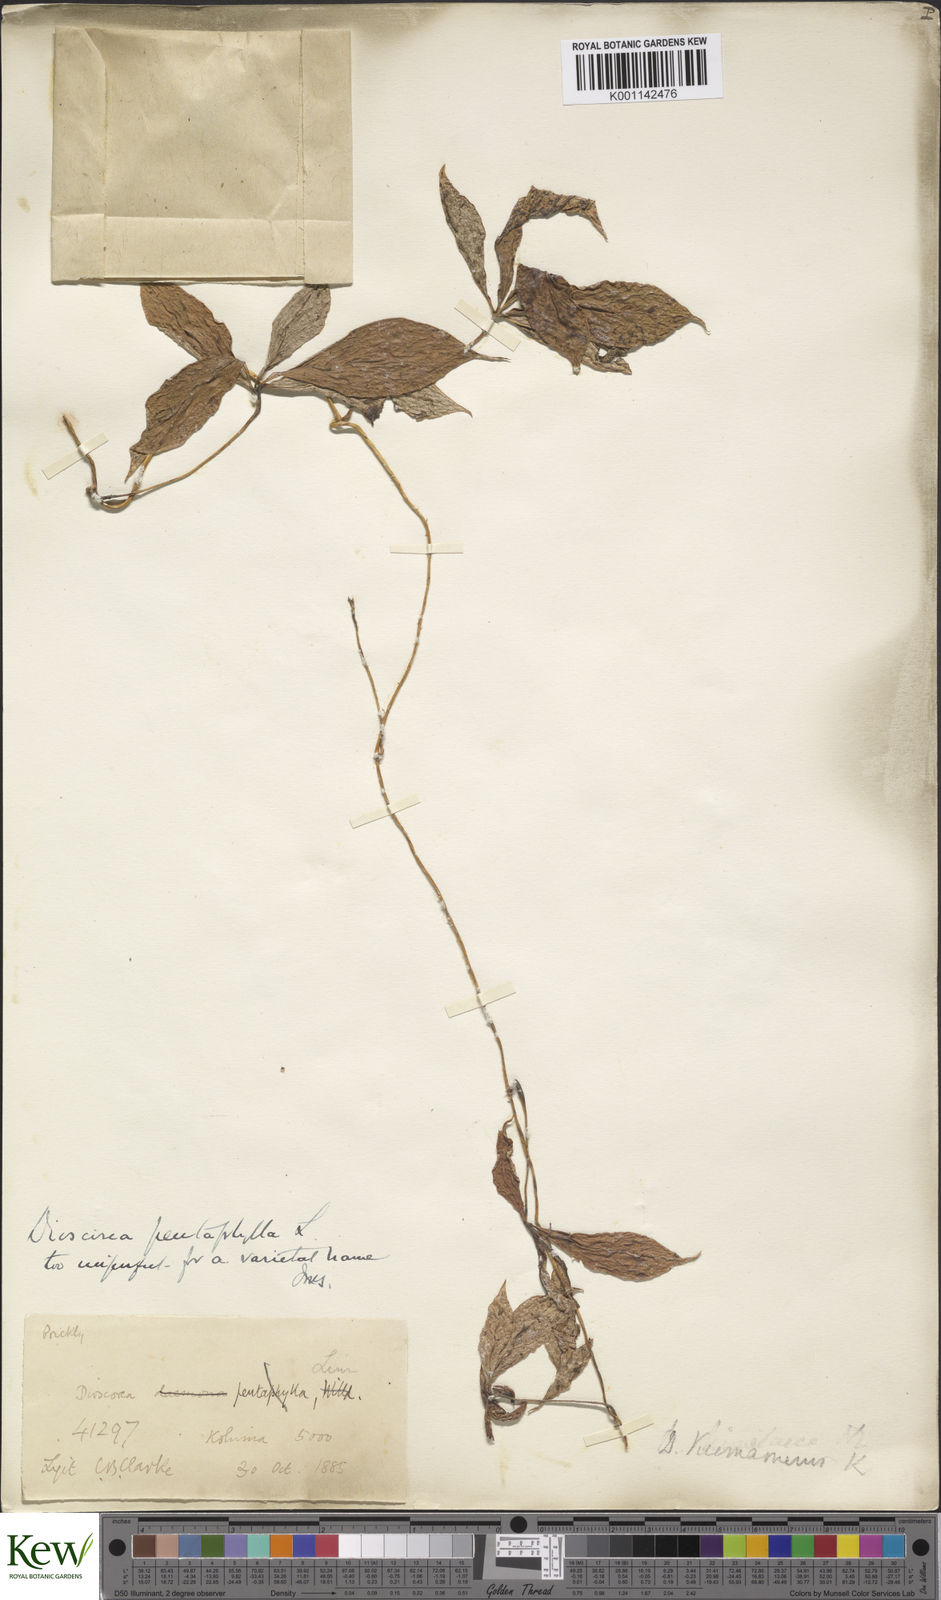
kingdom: Plantae
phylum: Tracheophyta
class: Liliopsida
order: Dioscoreales
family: Dioscoreaceae
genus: Dioscorea
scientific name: Dioscorea pentaphylla
